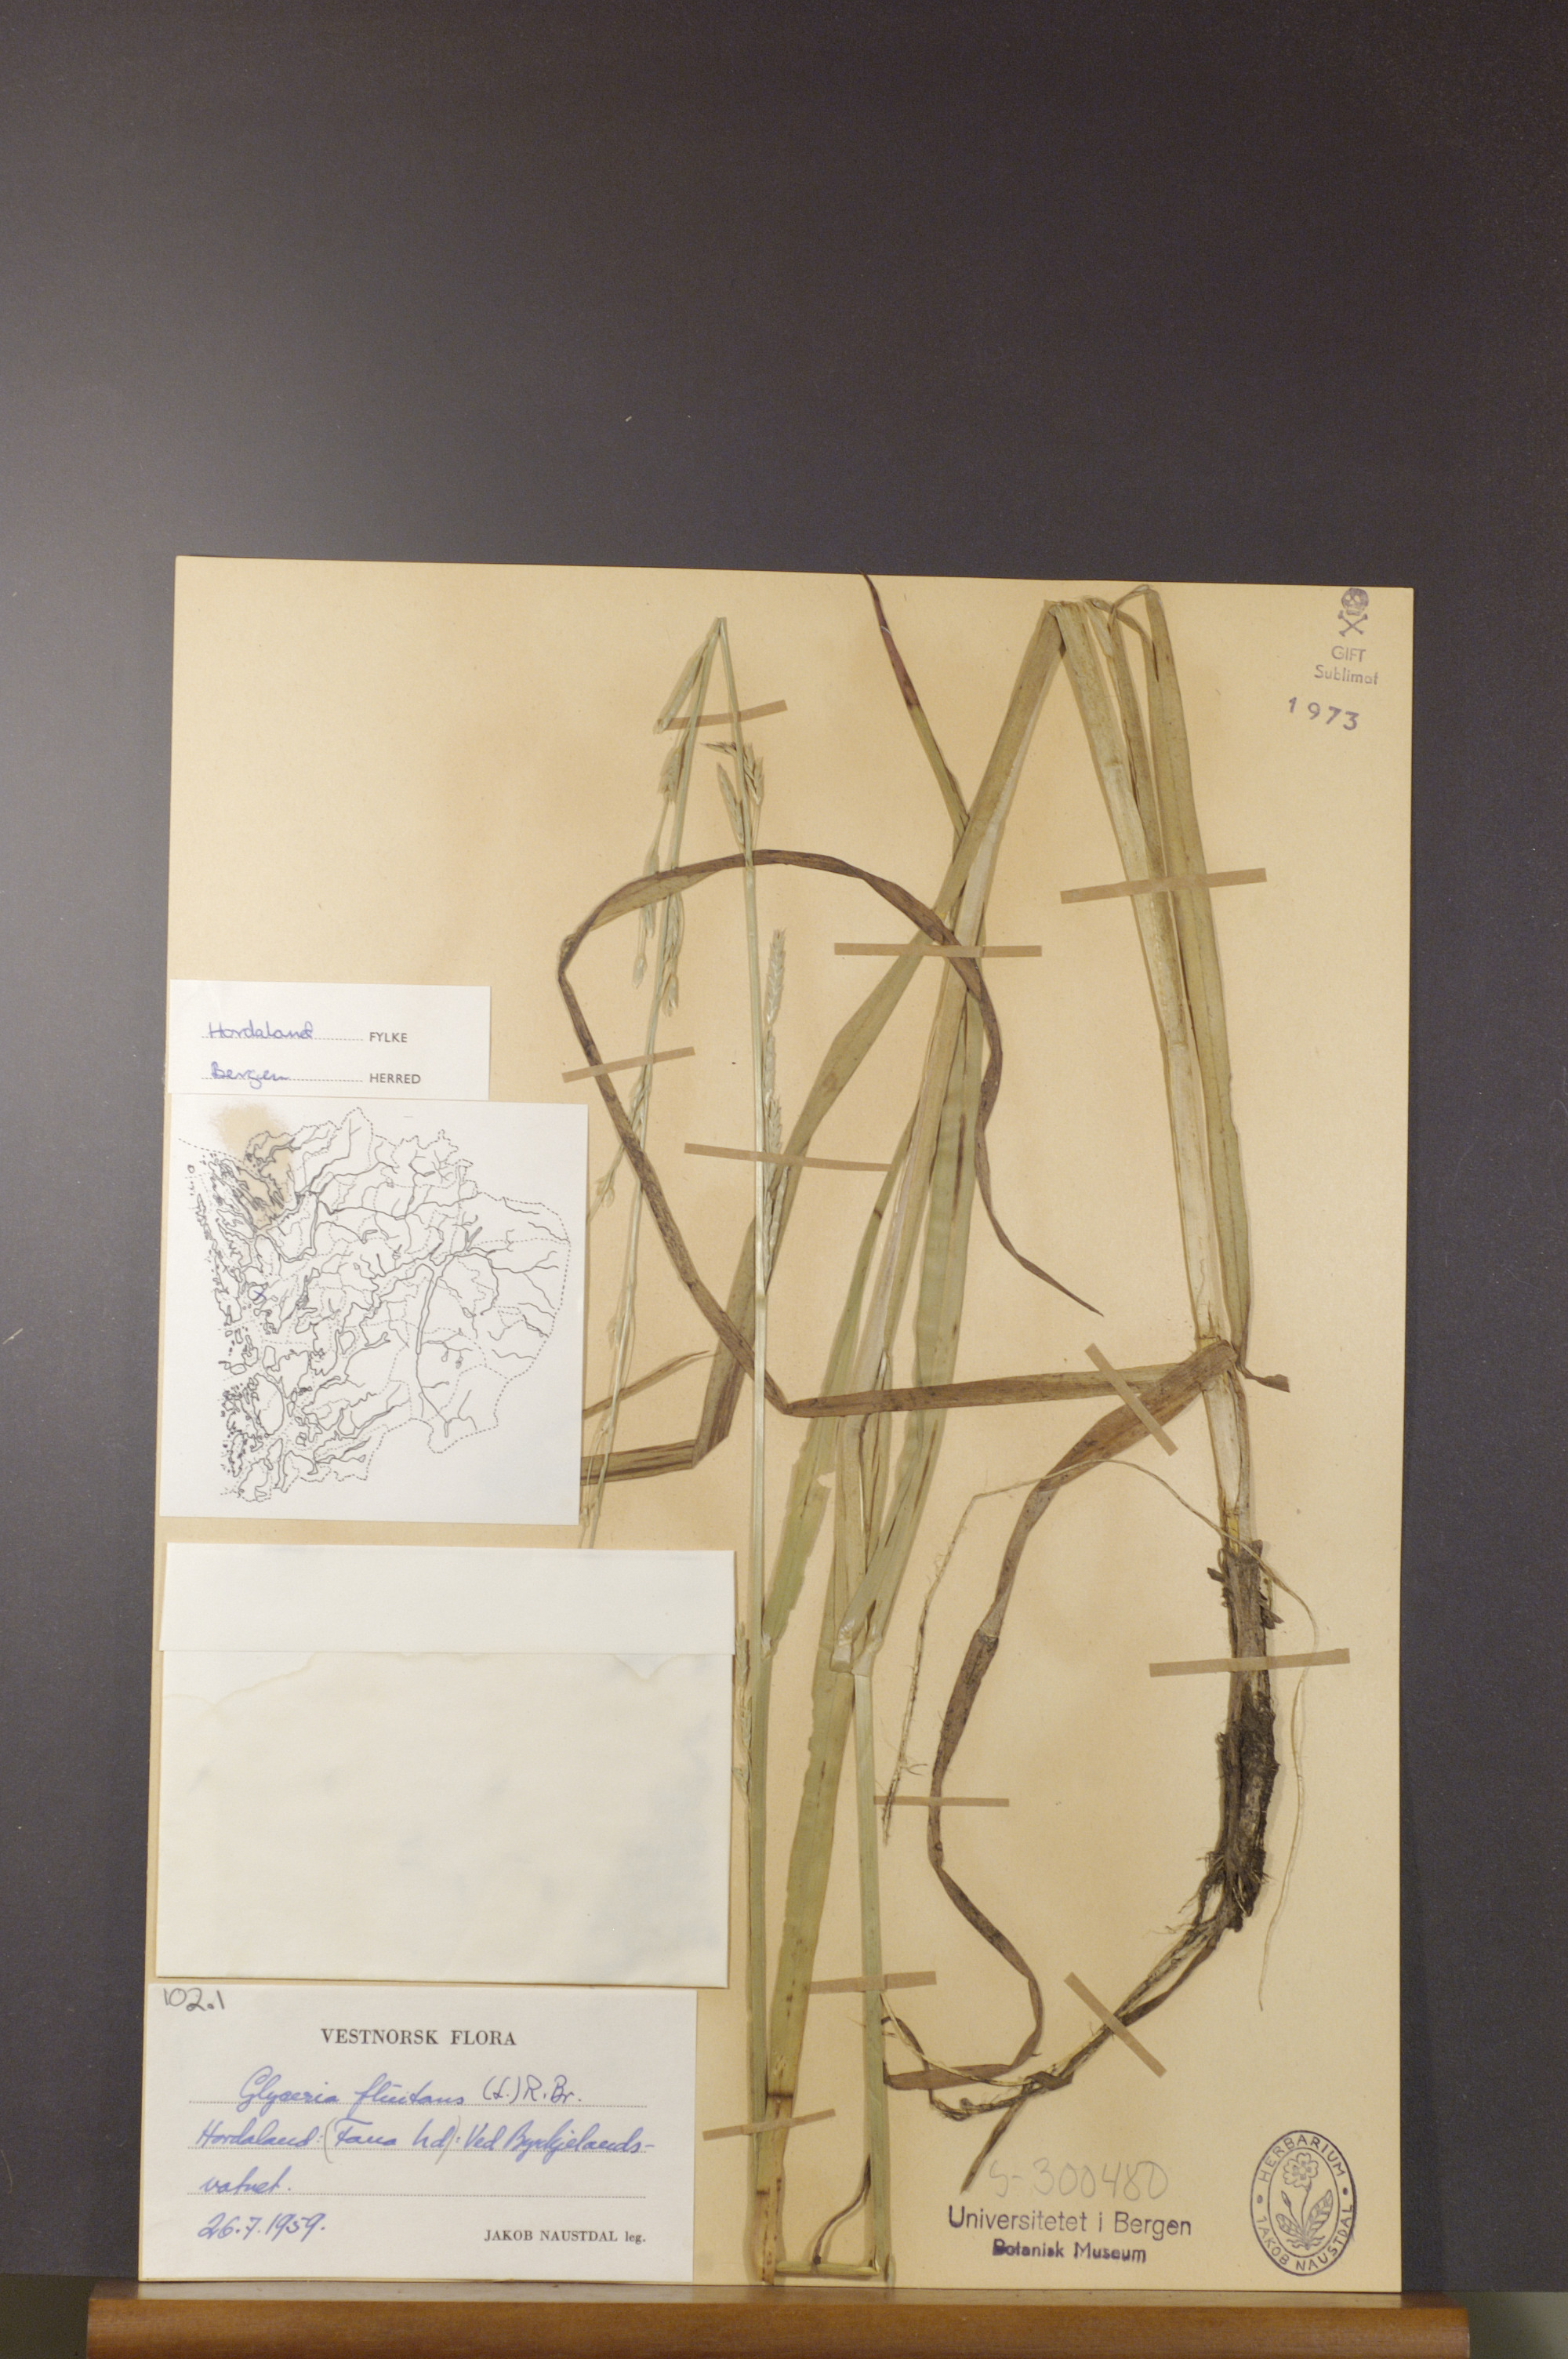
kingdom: Plantae
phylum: Tracheophyta
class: Liliopsida
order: Poales
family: Poaceae
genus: Glyceria
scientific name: Glyceria fluitans
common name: Floating sweet-grass
